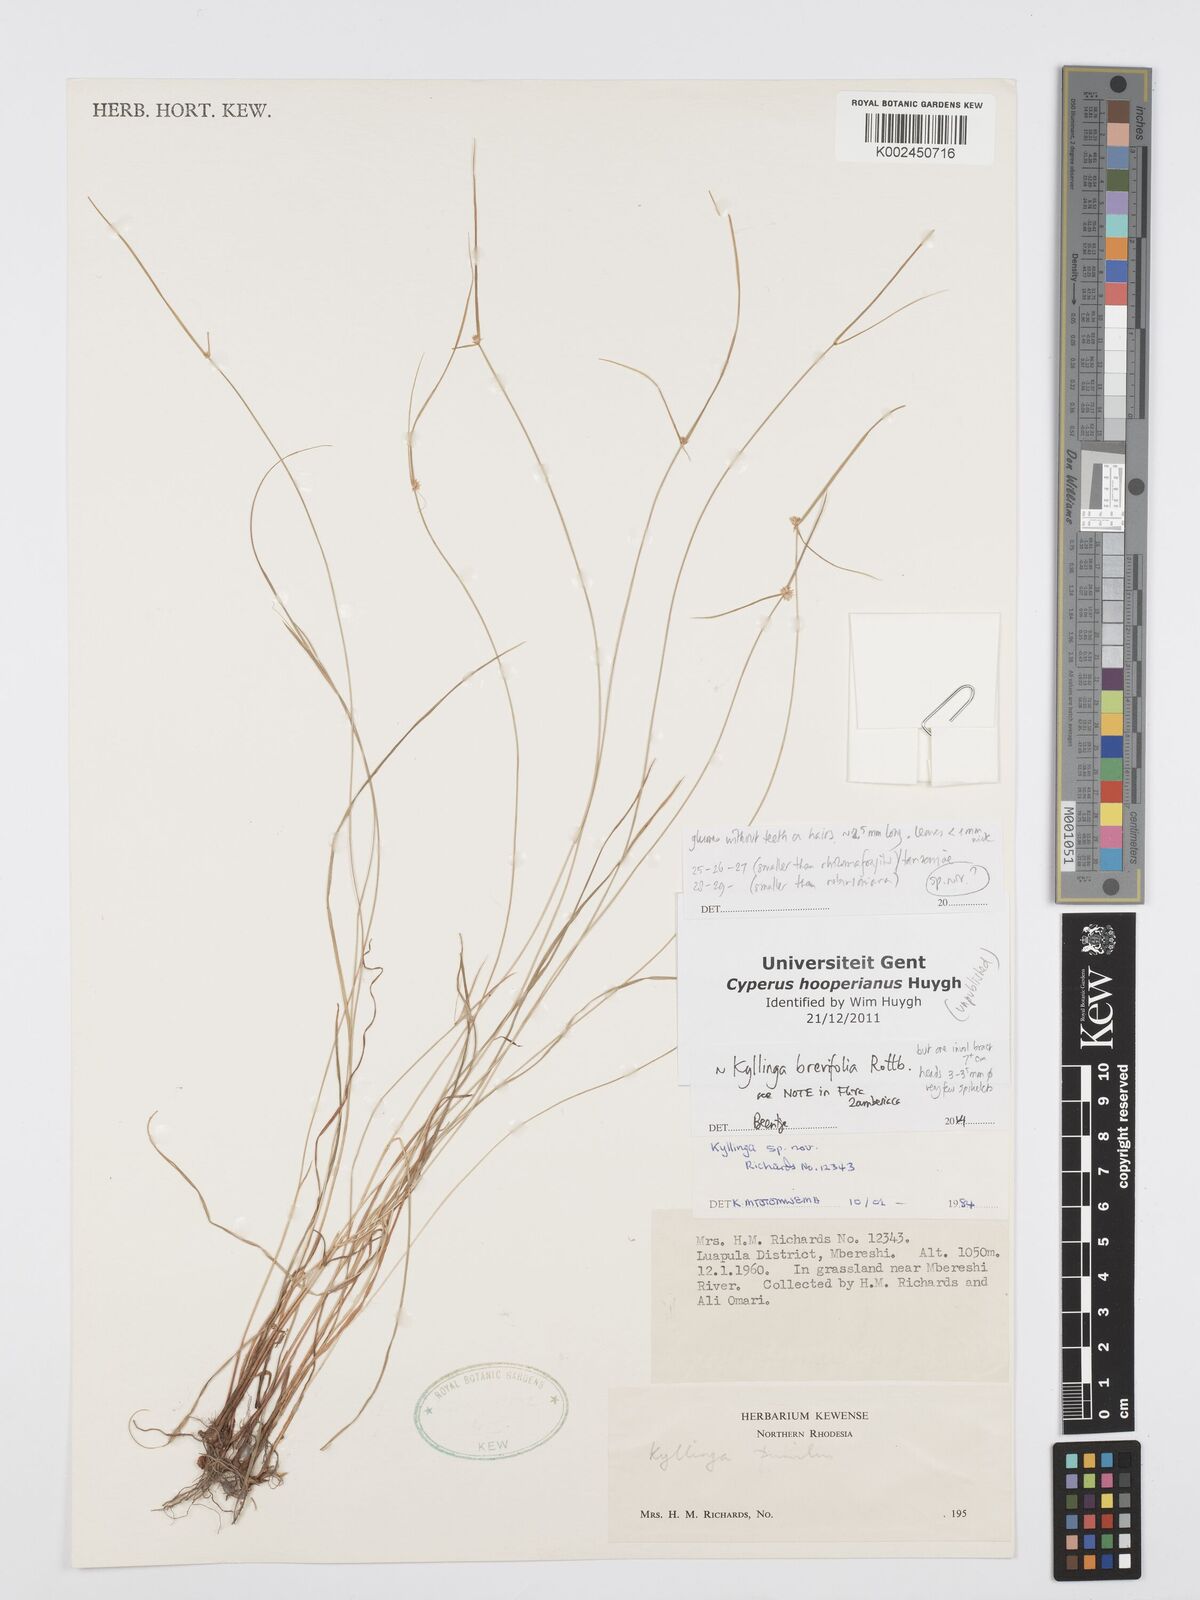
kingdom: Plantae
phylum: Tracheophyta
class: Liliopsida
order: Poales
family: Cyperaceae
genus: Cyperus
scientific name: Cyperus brevifolius
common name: Globe kyllinga
